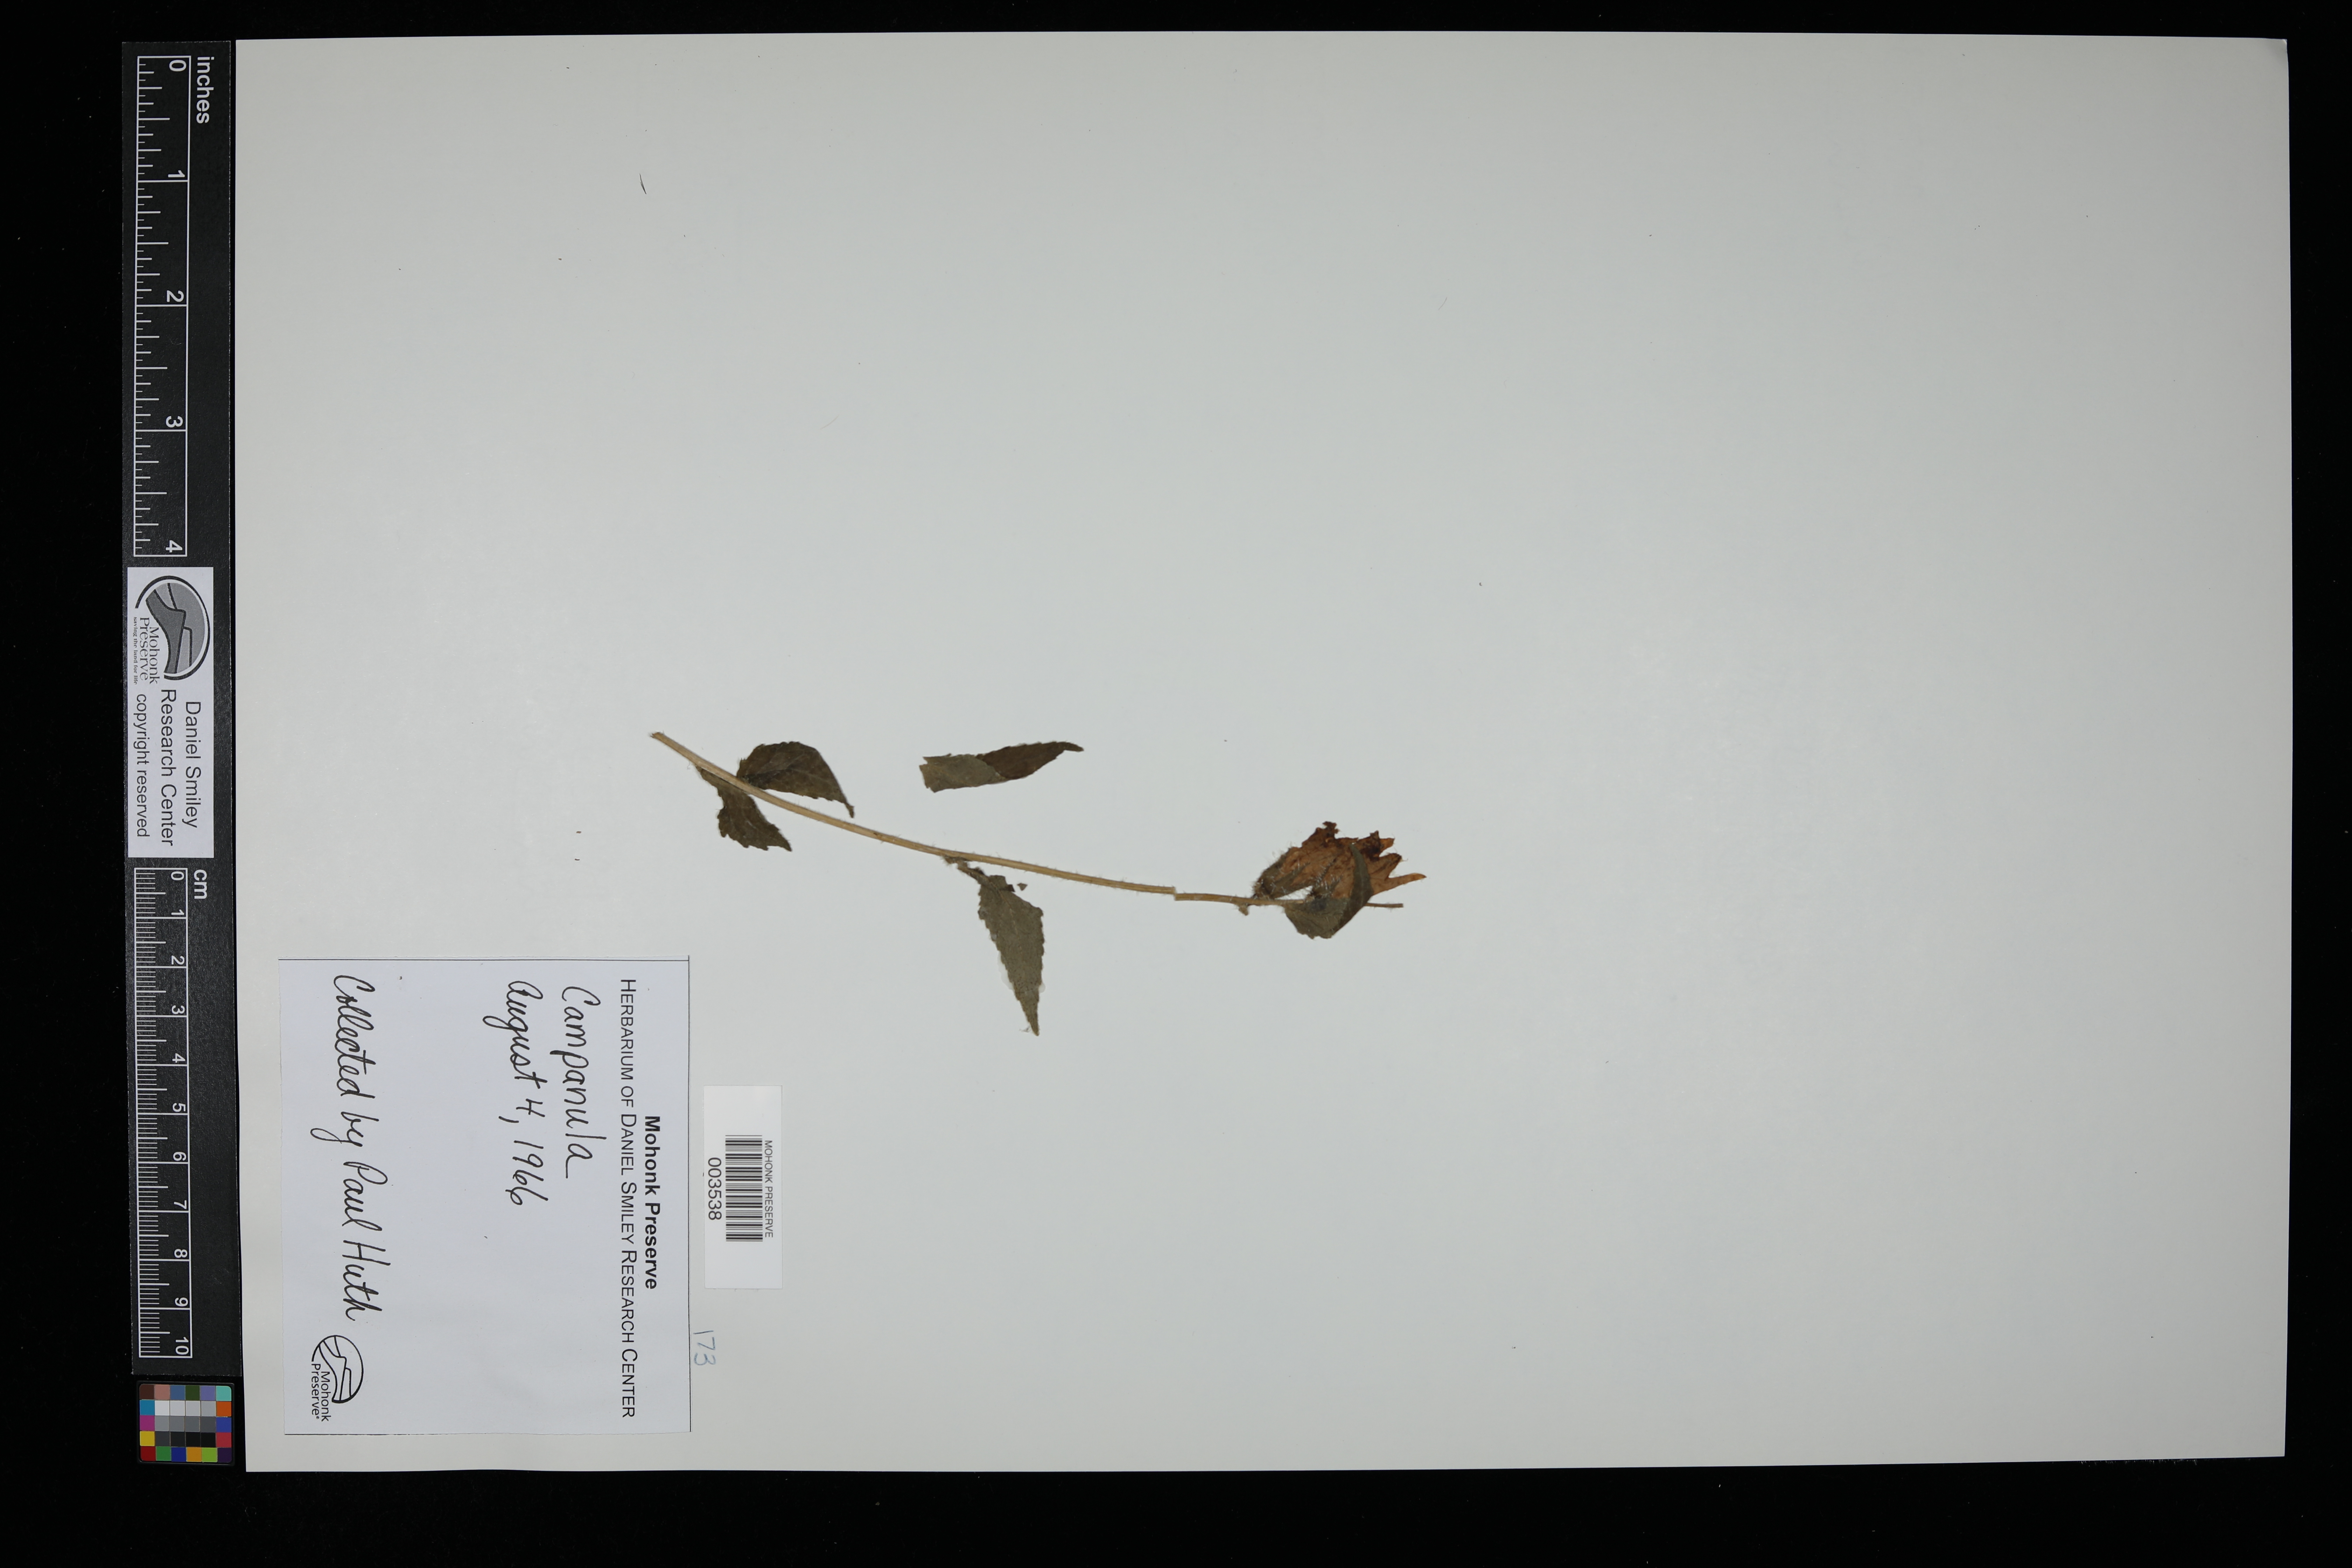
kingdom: Plantae
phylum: Tracheophyta
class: Magnoliopsida
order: Asterales
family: Campanulaceae
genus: Campanula
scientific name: Campanula
